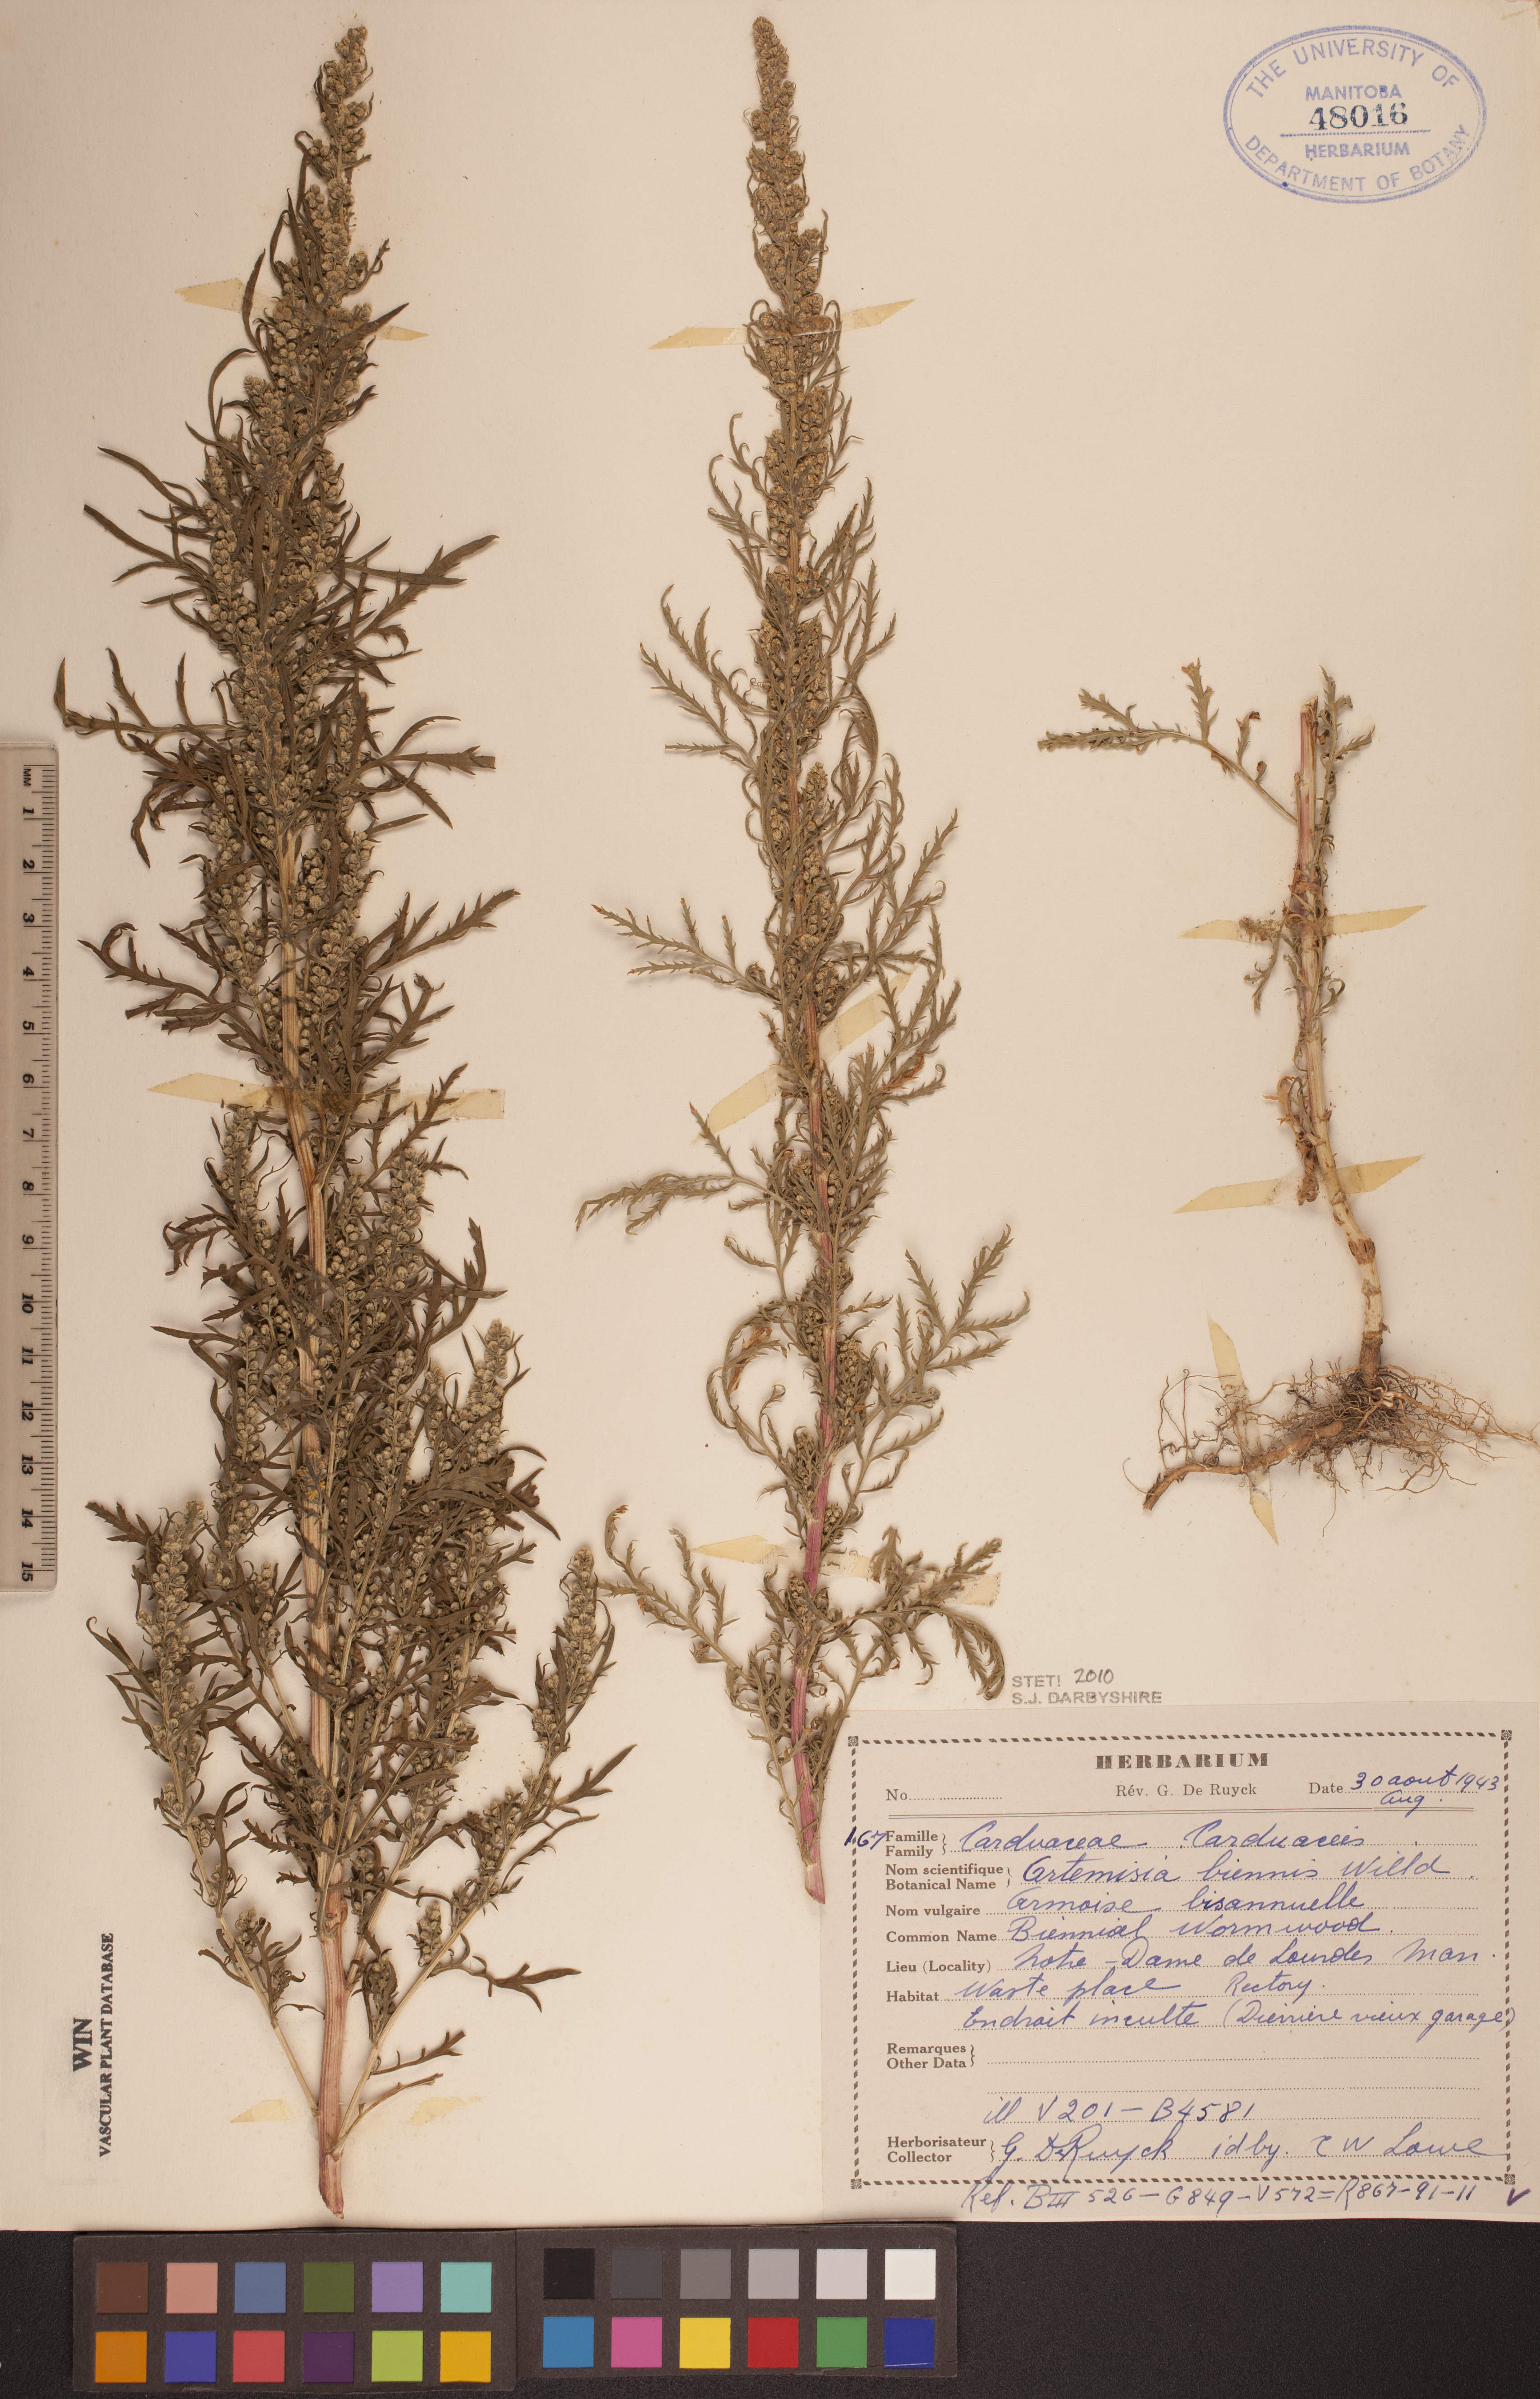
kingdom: Plantae
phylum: Tracheophyta
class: Magnoliopsida
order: Asterales
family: Asteraceae
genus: Artemisia
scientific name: Artemisia biennis
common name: Biennial wormwood
